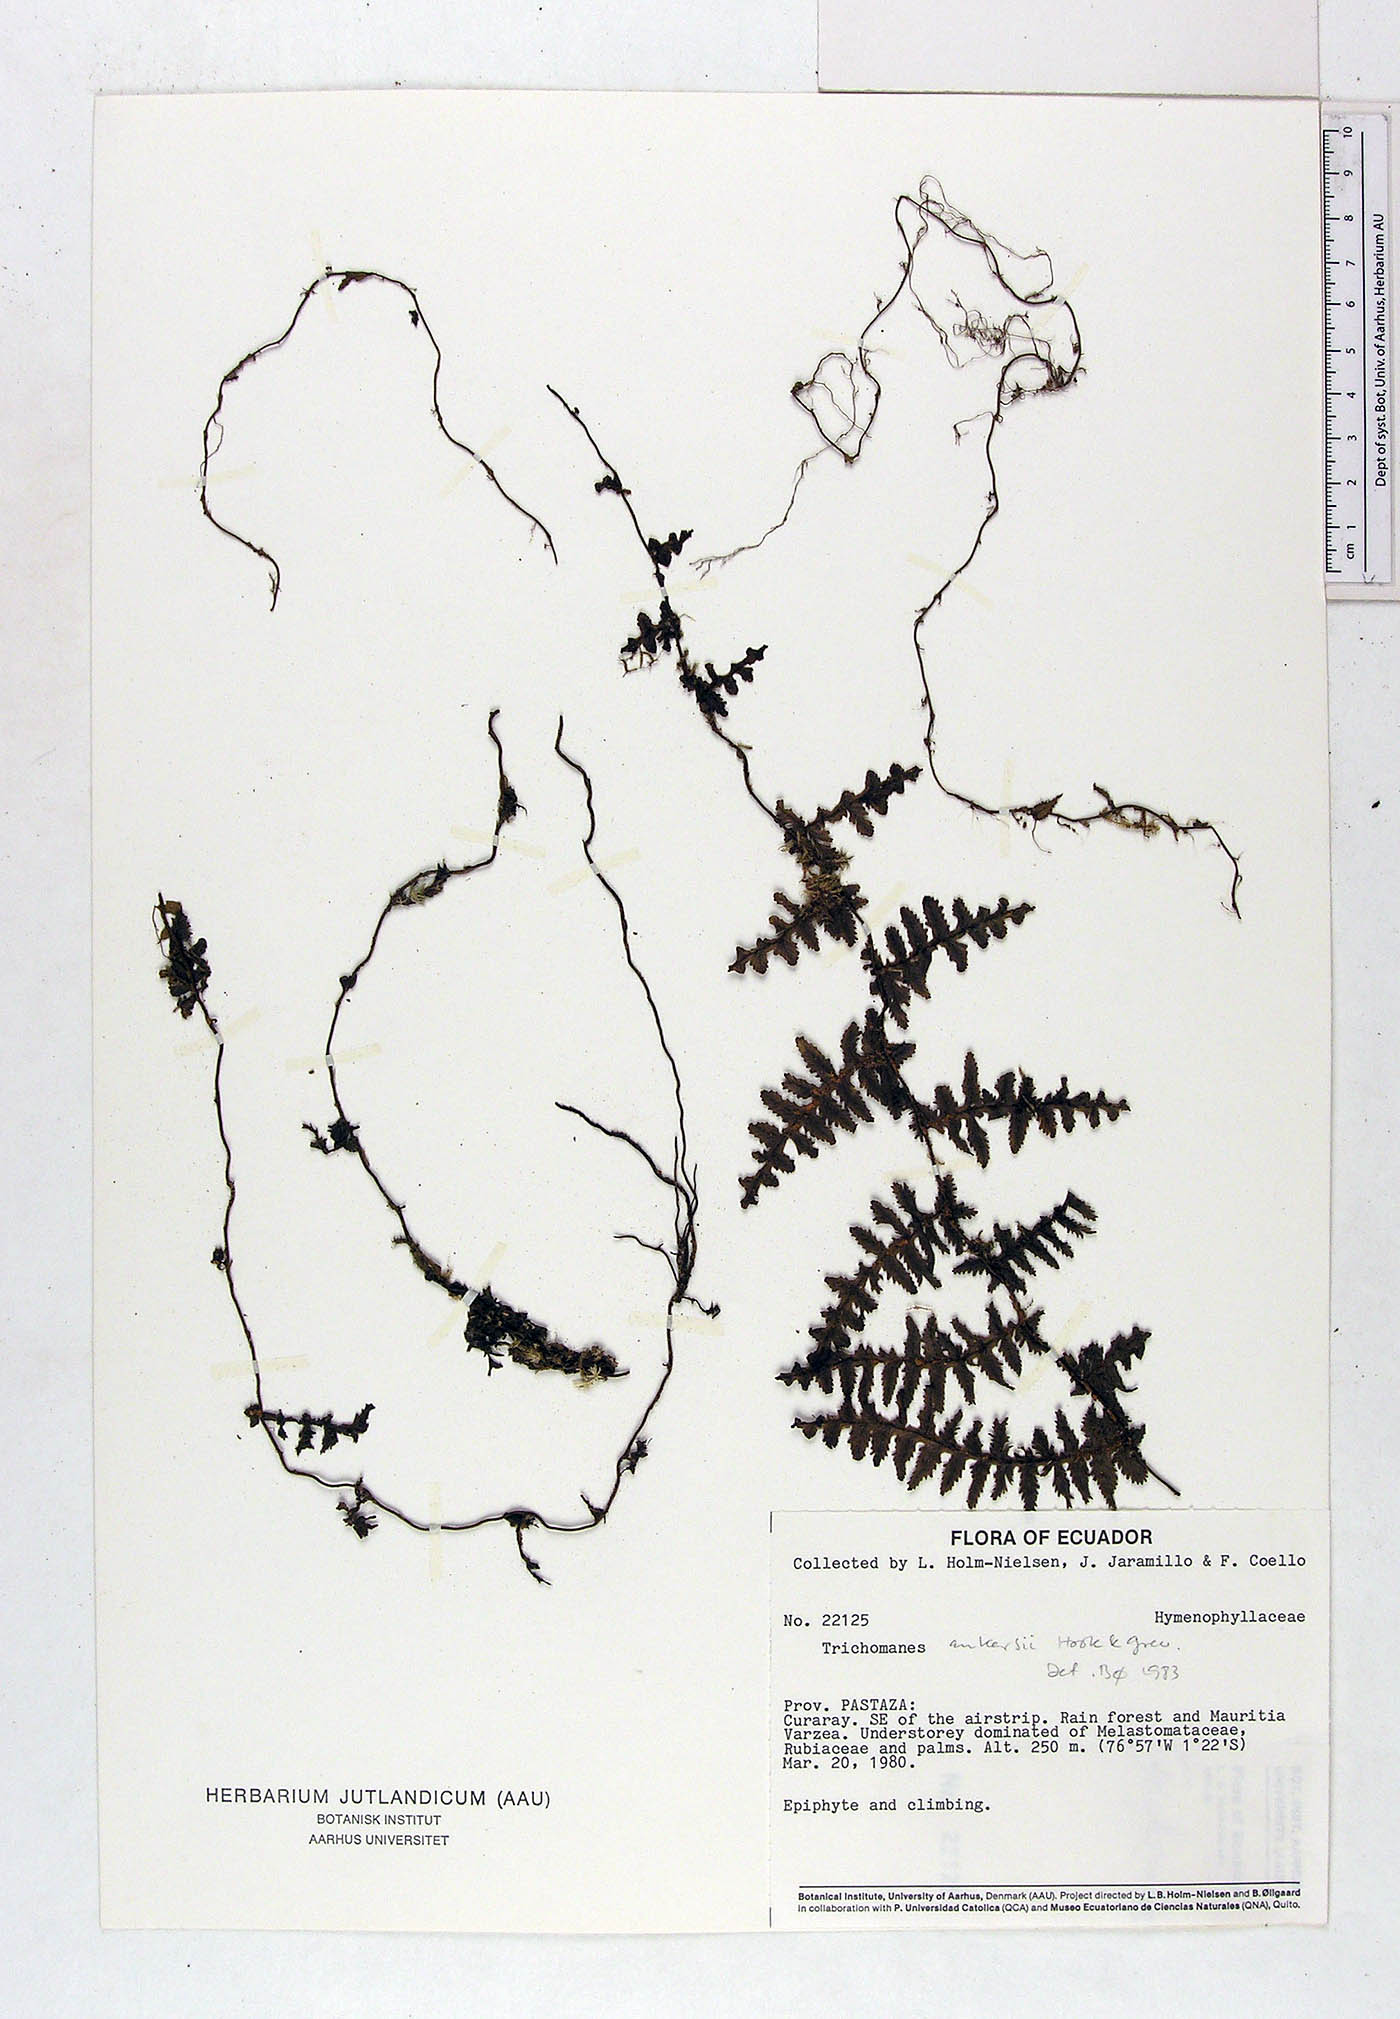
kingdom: Plantae
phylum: Tracheophyta
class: Polypodiopsida
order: Hymenophyllales
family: Hymenophyllaceae
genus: Trichomanes
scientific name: Trichomanes ankersii
